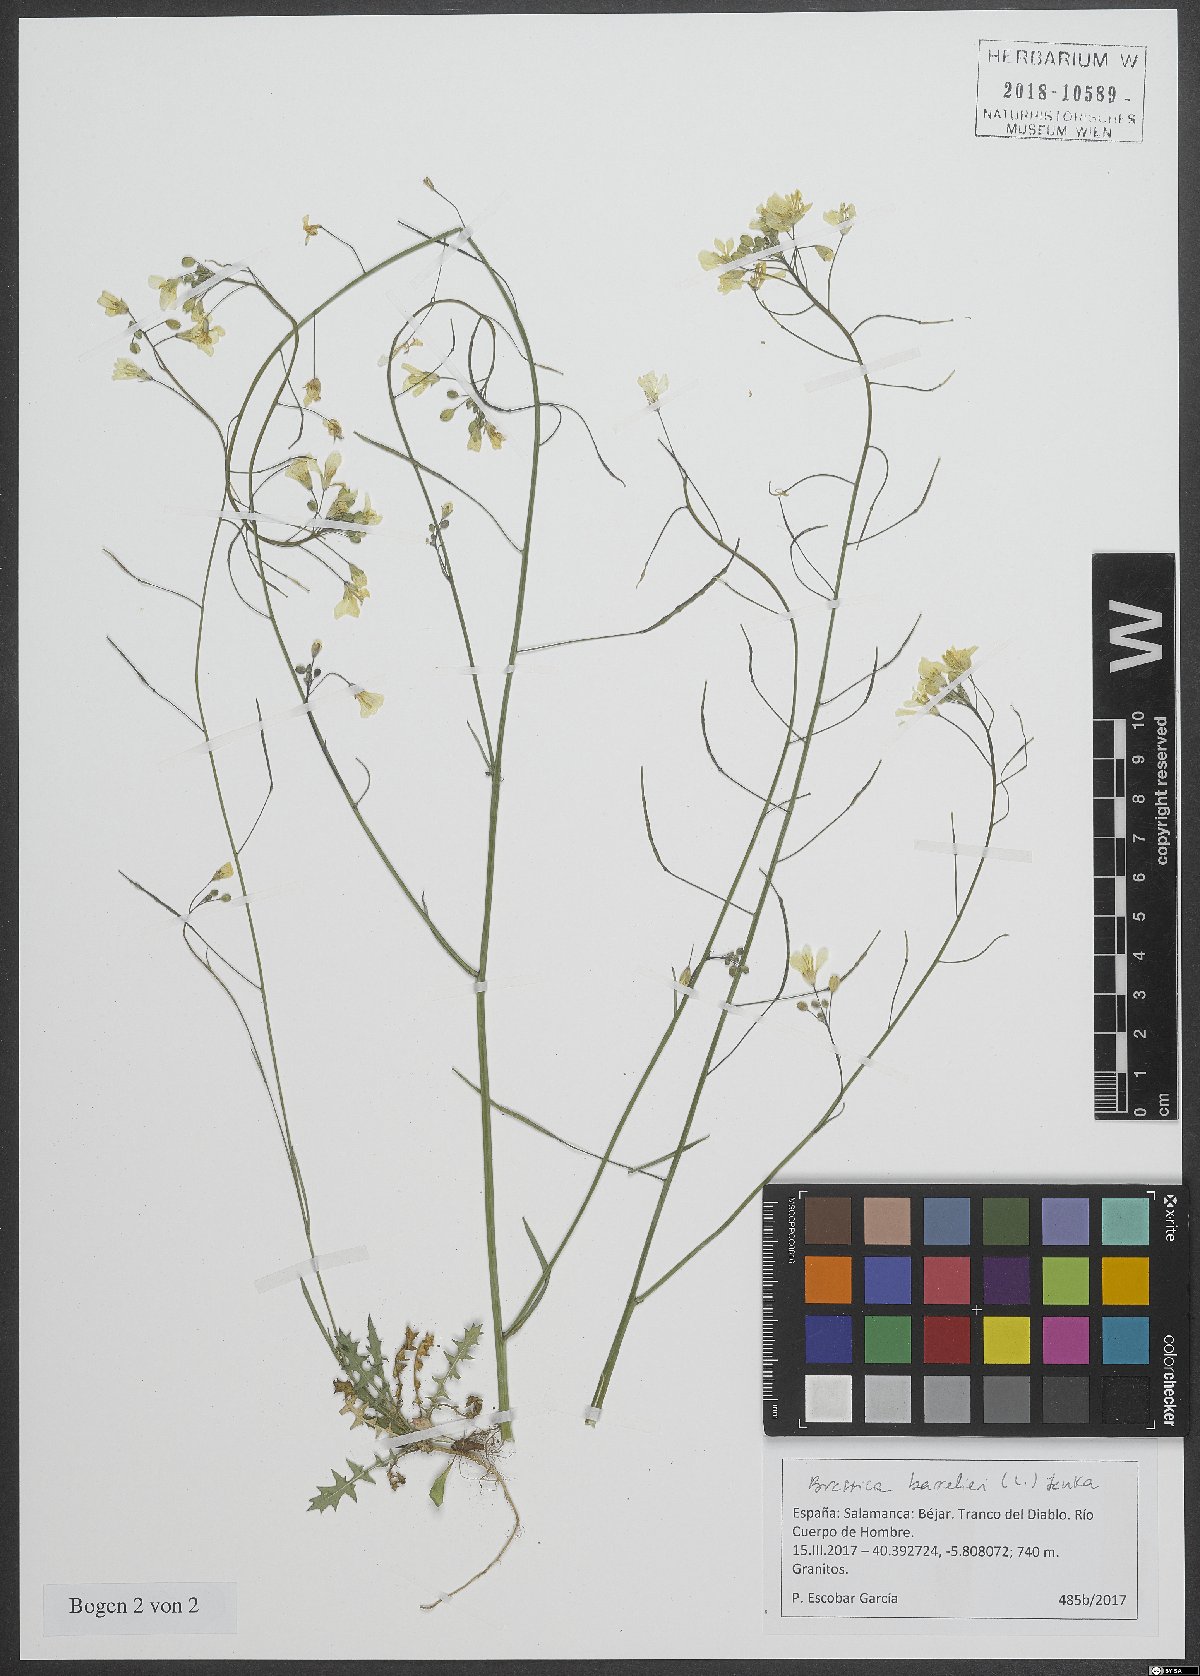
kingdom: Plantae
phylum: Tracheophyta
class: Magnoliopsida
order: Brassicales
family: Brassicaceae
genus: Brassica
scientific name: Brassica barrelieri
